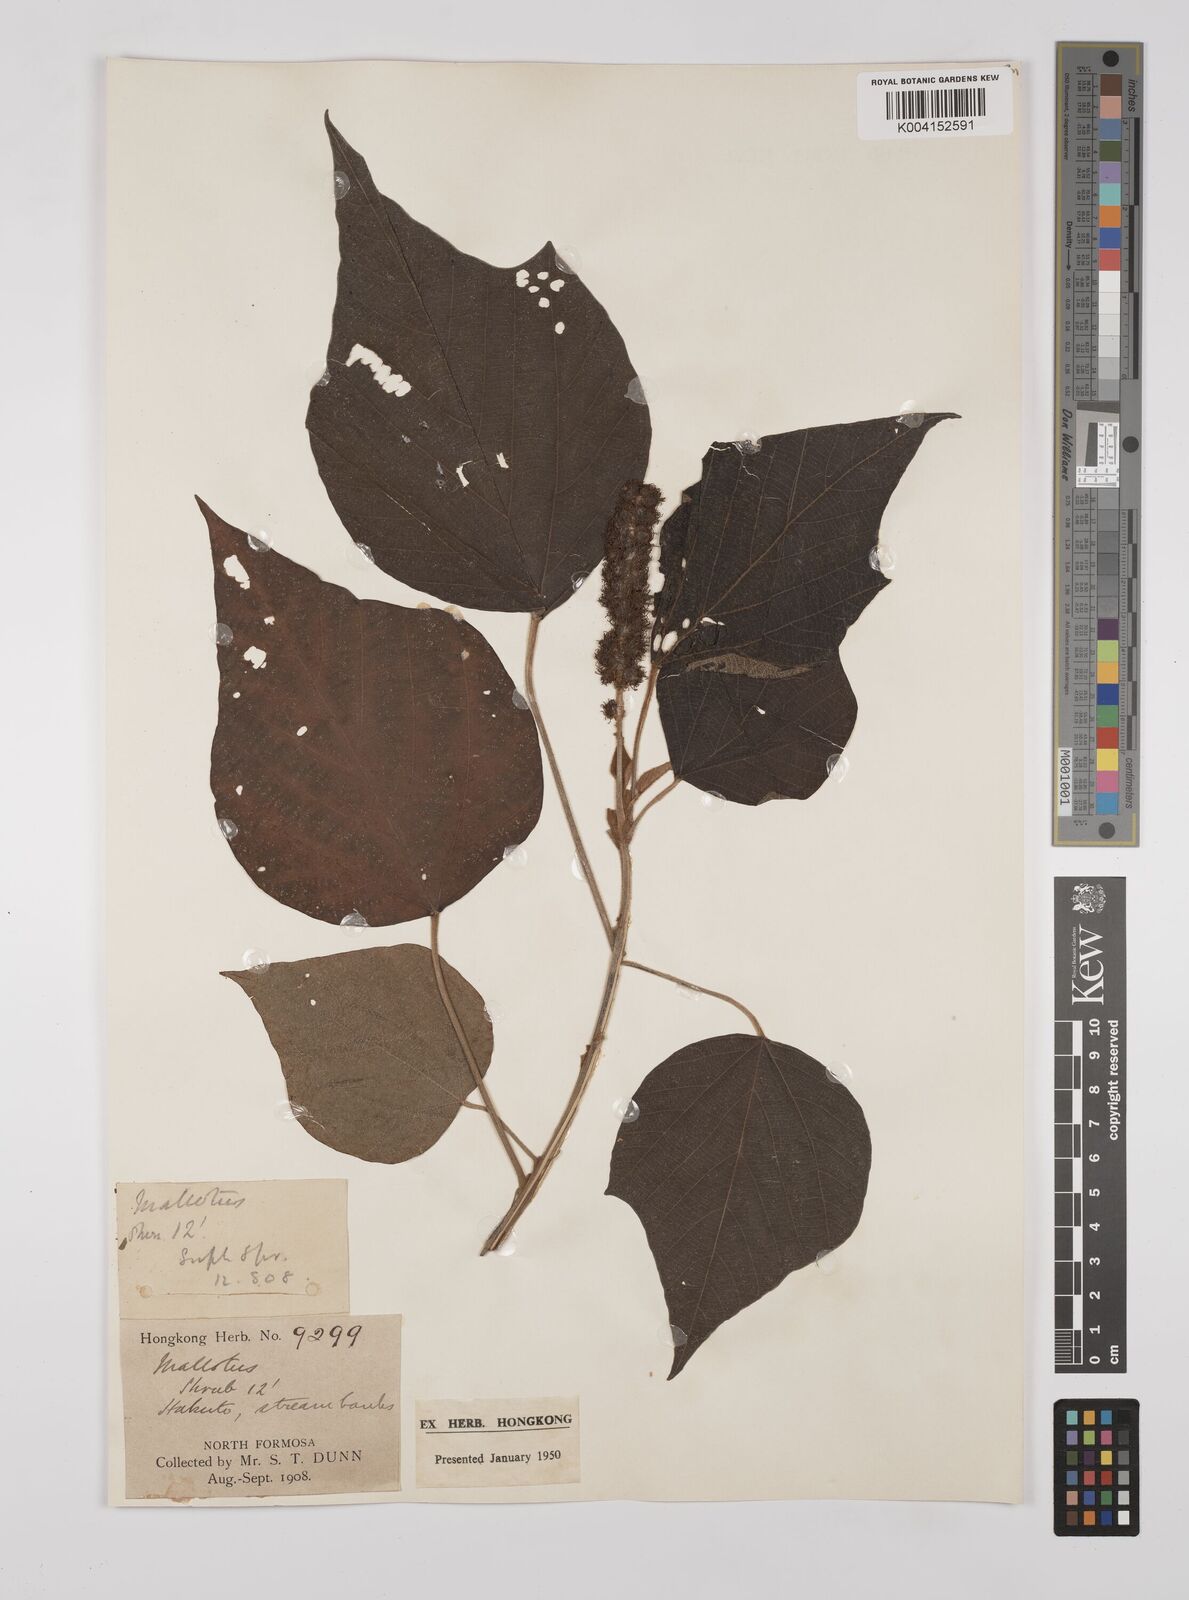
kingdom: Plantae
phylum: Tracheophyta
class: Magnoliopsida
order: Malpighiales
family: Euphorbiaceae
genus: Mallotus
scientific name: Mallotus japonicus
